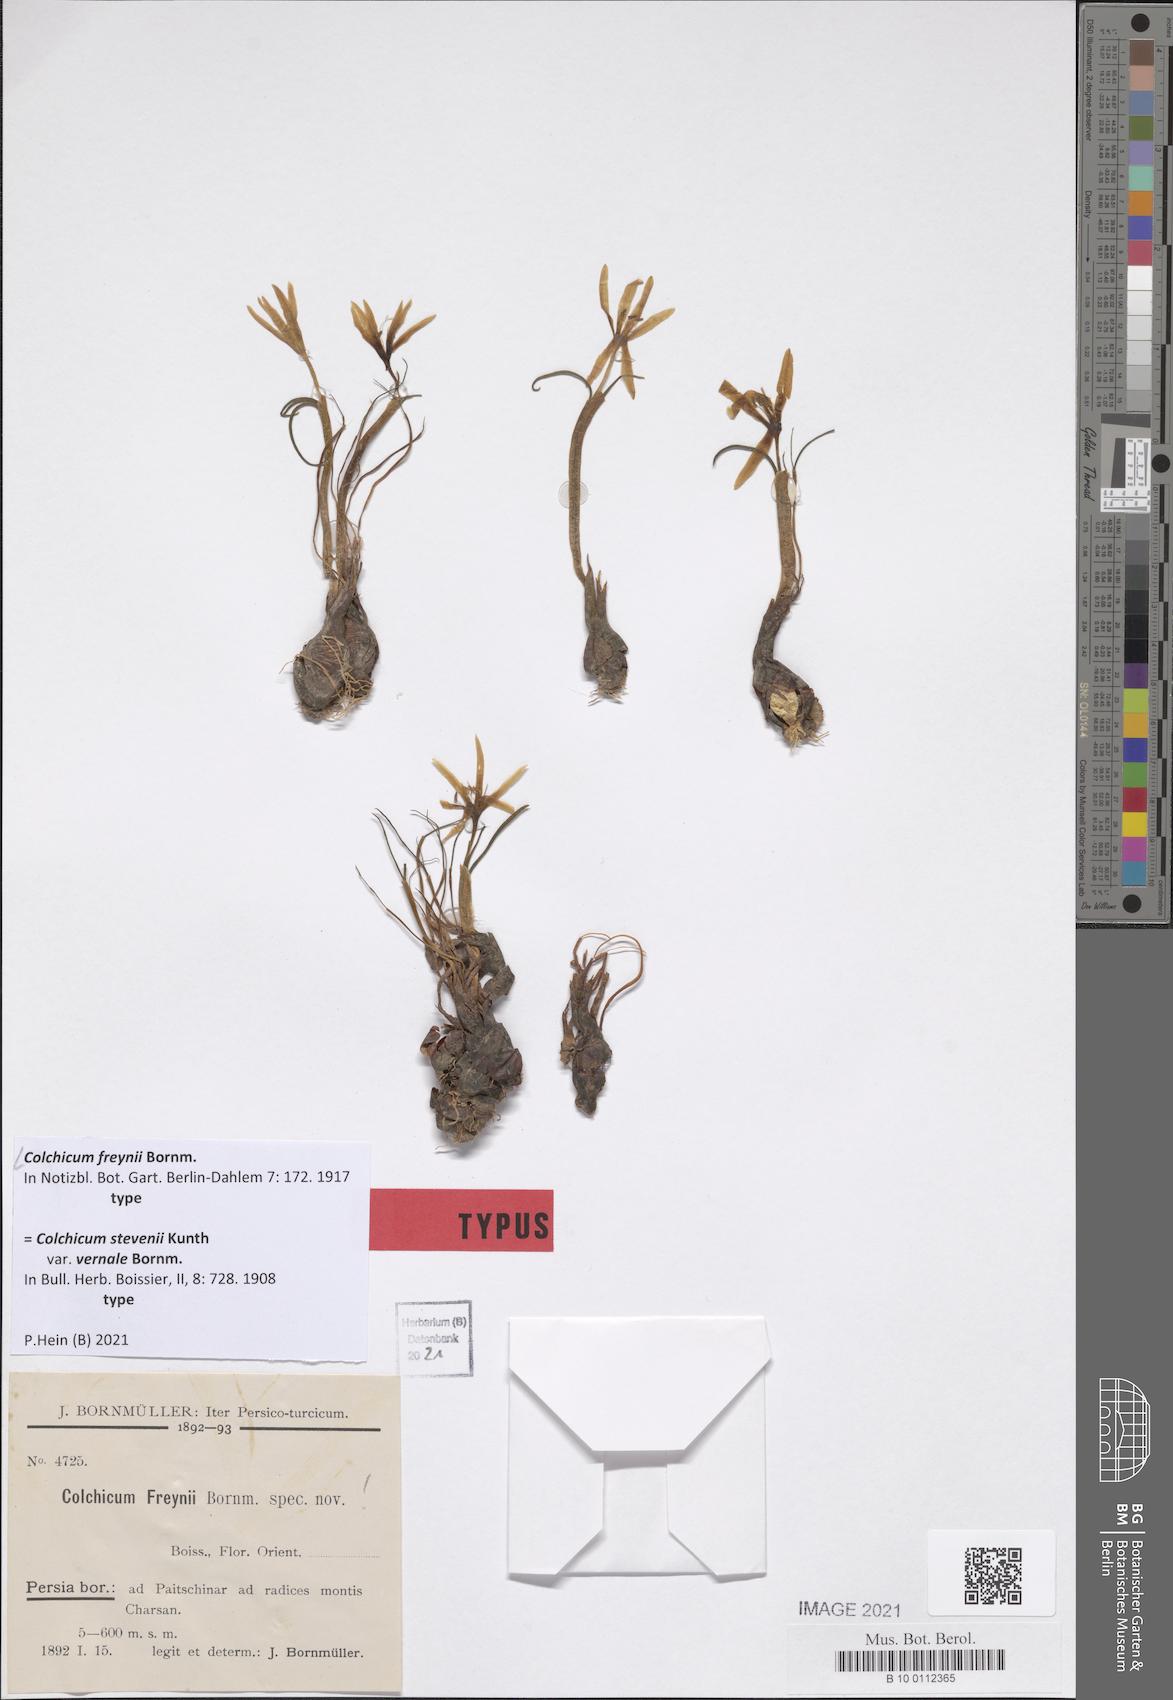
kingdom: Plantae
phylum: Tracheophyta
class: Liliopsida
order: Liliales
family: Colchicaceae
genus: Colchicum
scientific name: Colchicum freynii
